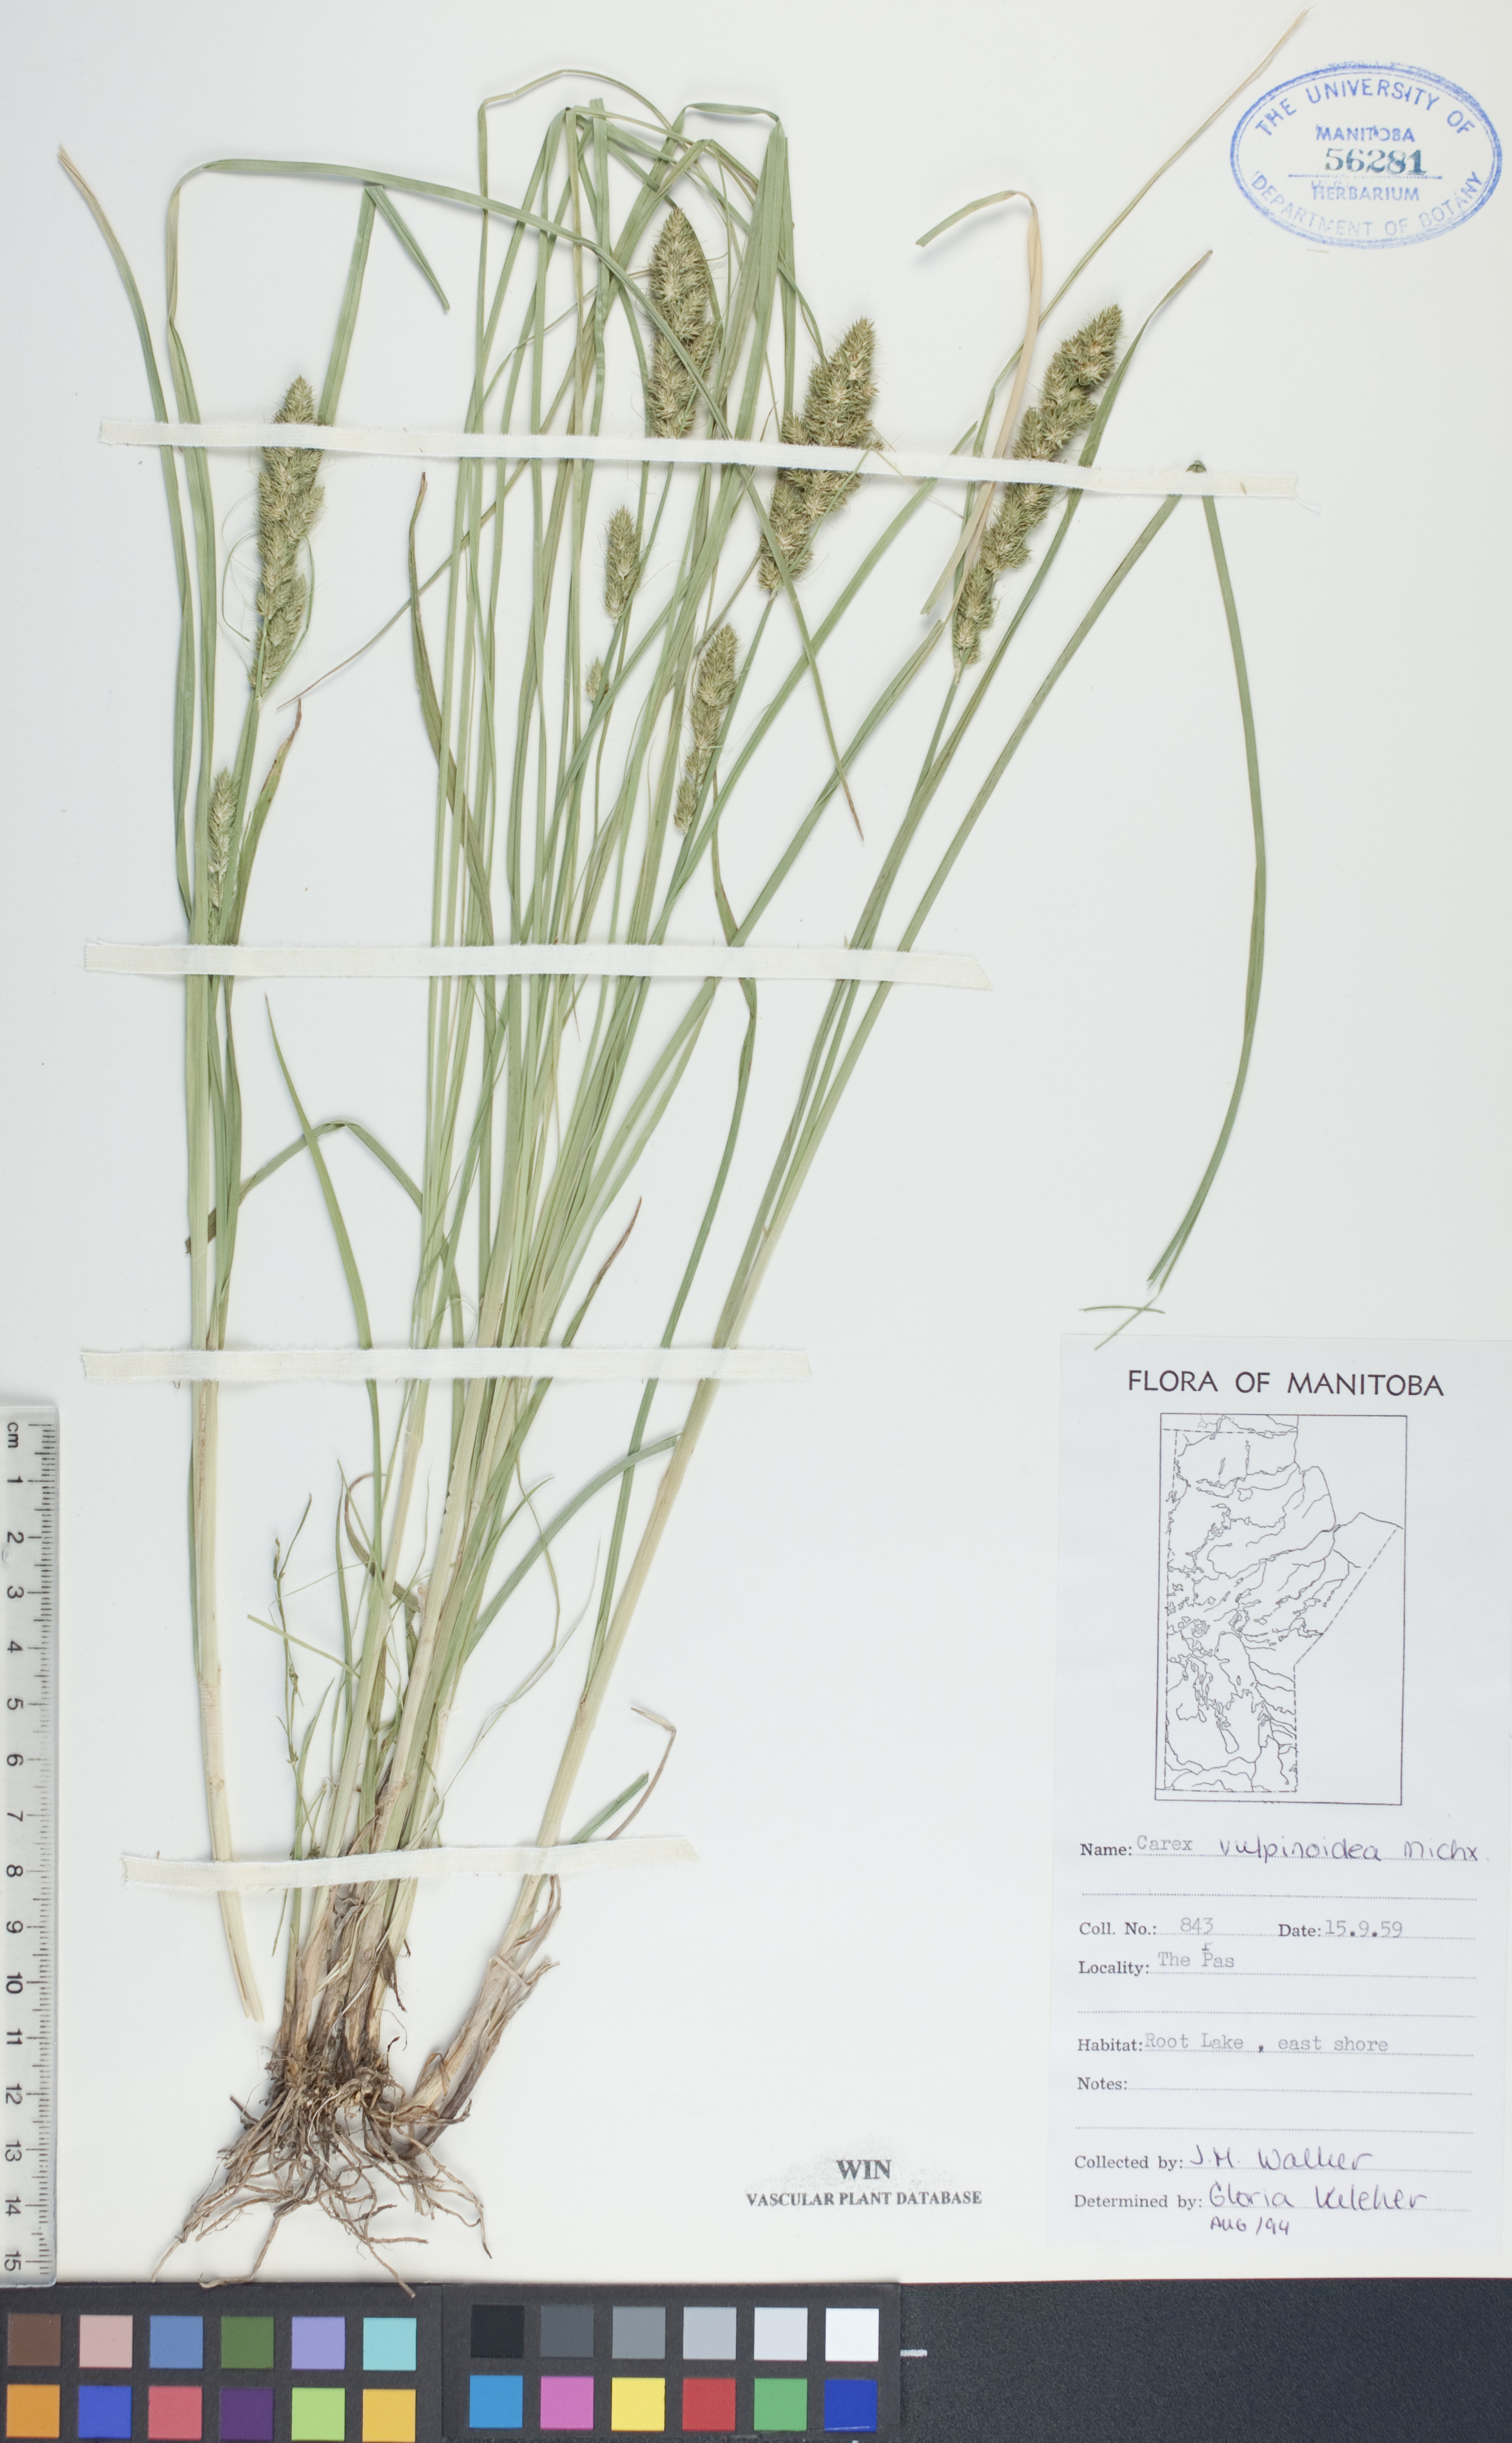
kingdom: Plantae
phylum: Tracheophyta
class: Liliopsida
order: Poales
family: Cyperaceae
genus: Carex
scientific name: Carex vulpinoidea
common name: American fox-sedge
